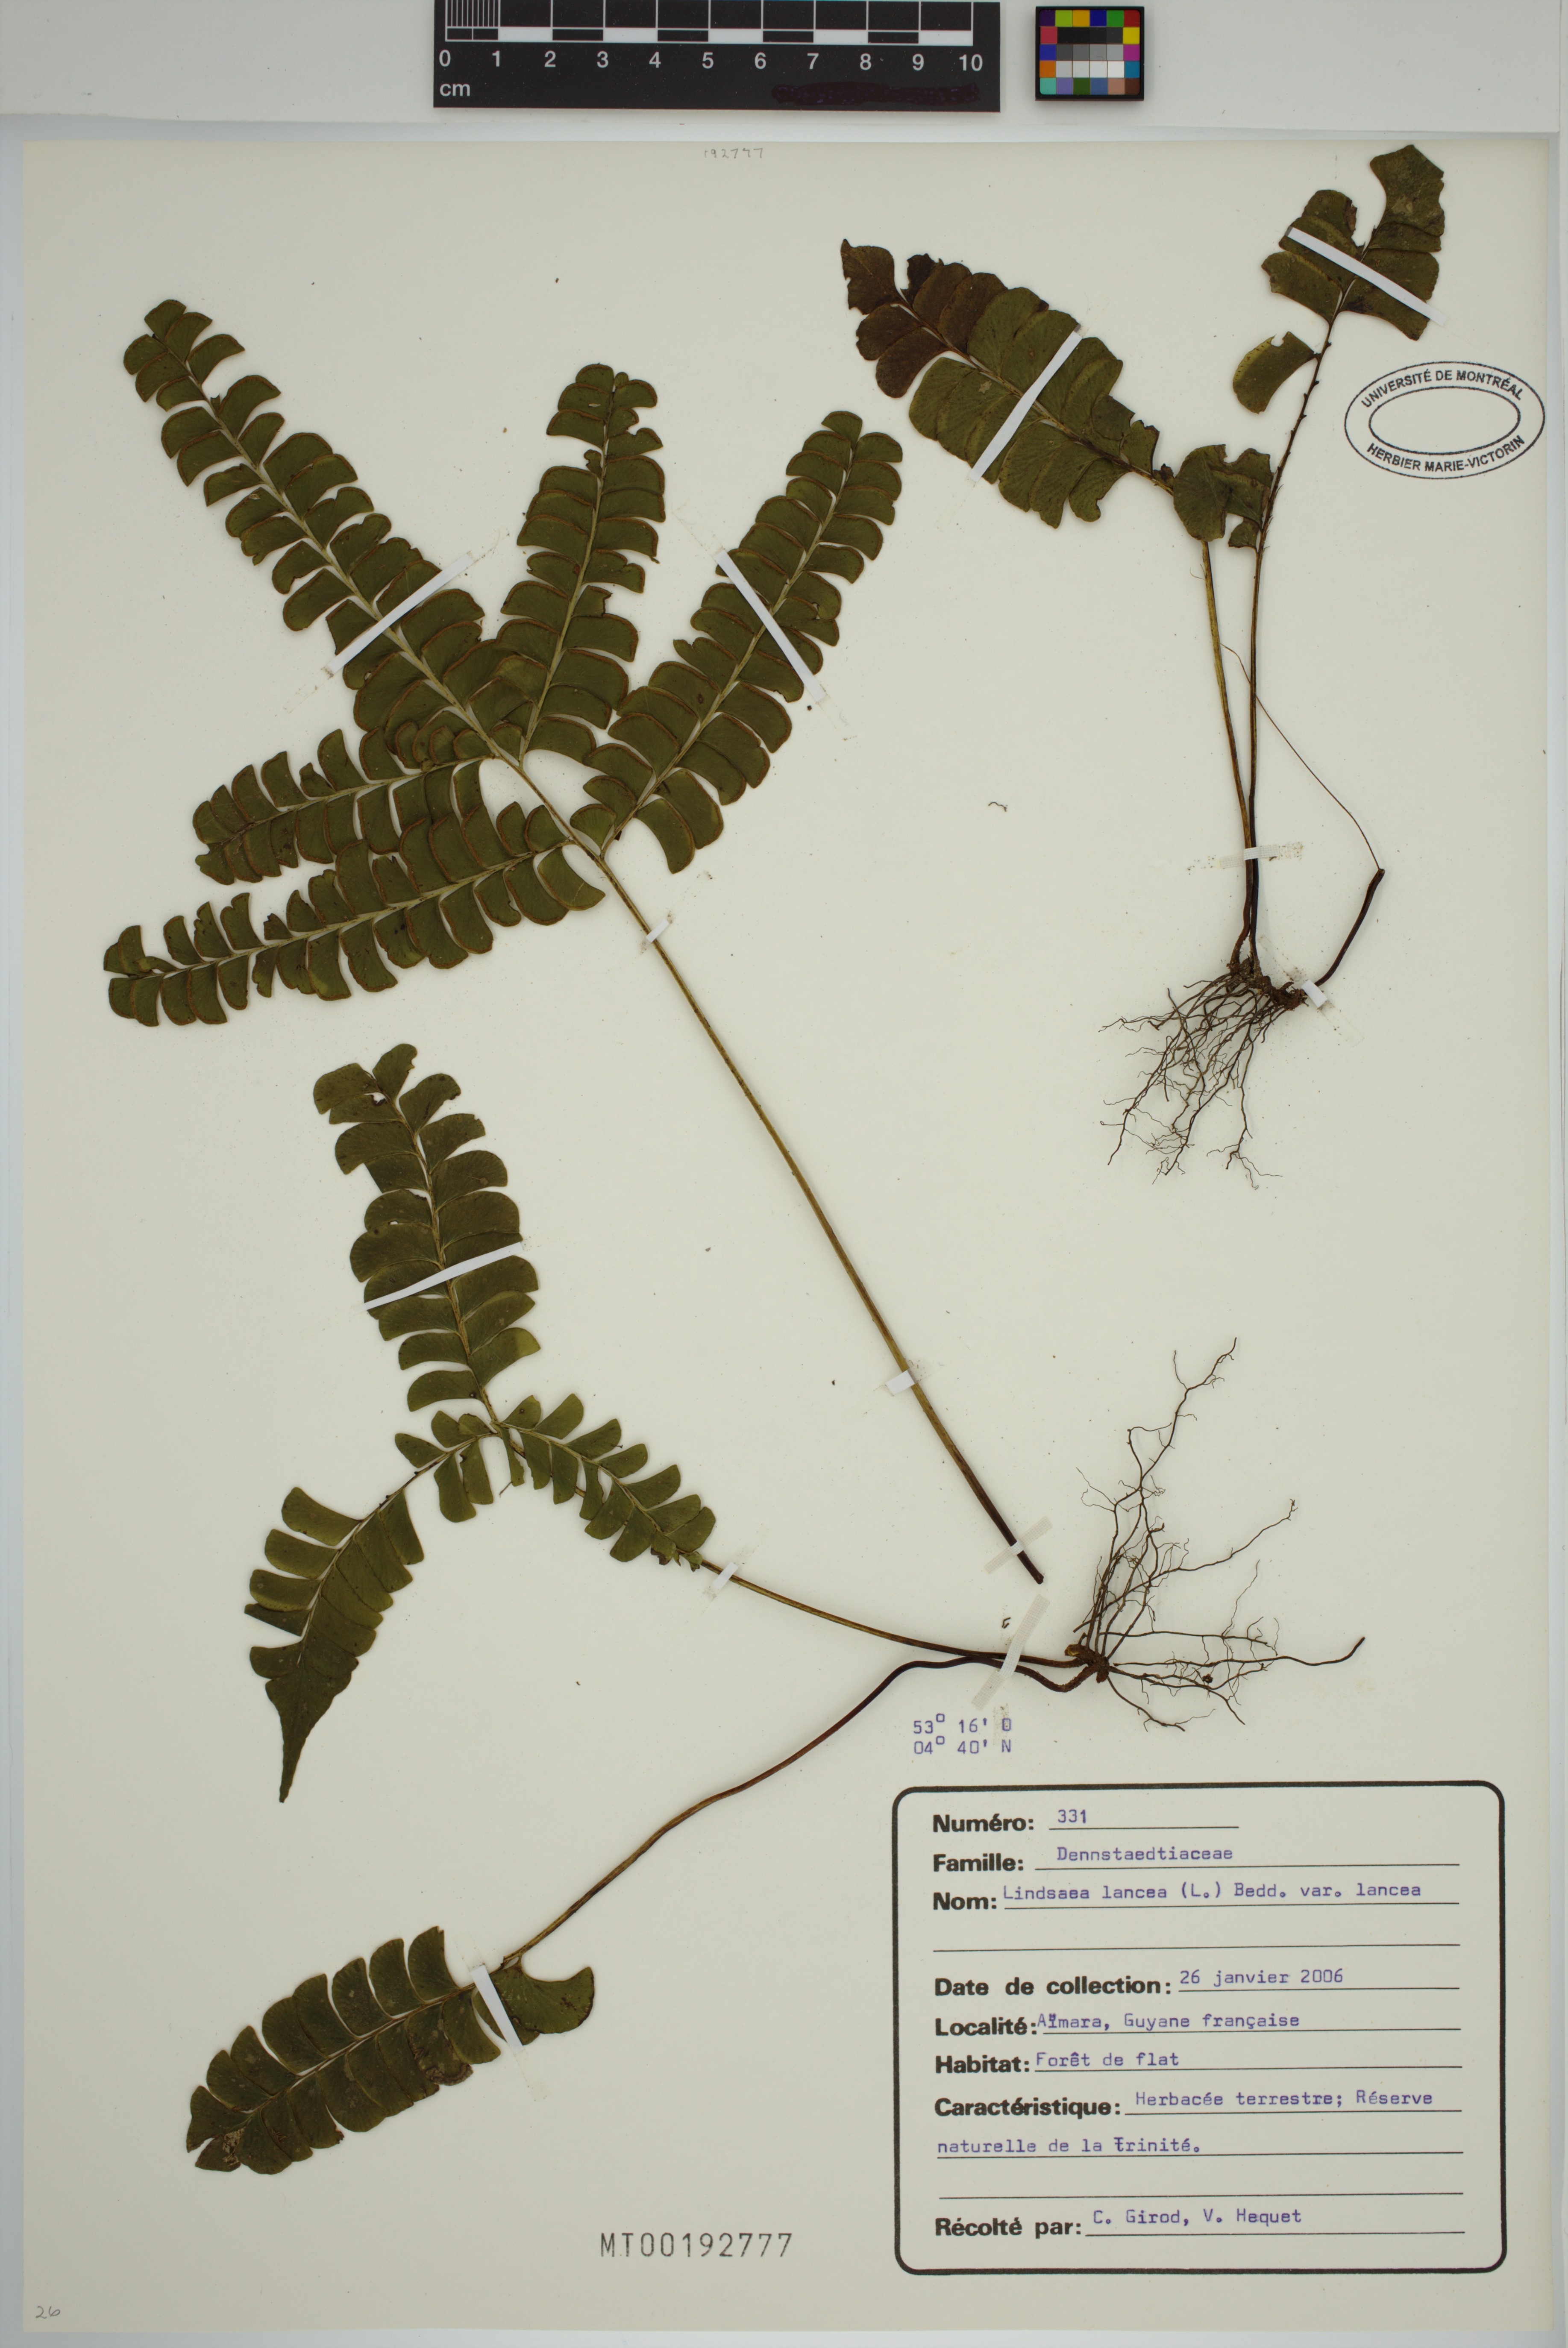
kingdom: Plantae
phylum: Tracheophyta
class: Polypodiopsida
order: Polypodiales
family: Lindsaeaceae
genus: Lindsaea
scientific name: Lindsaea lancea
